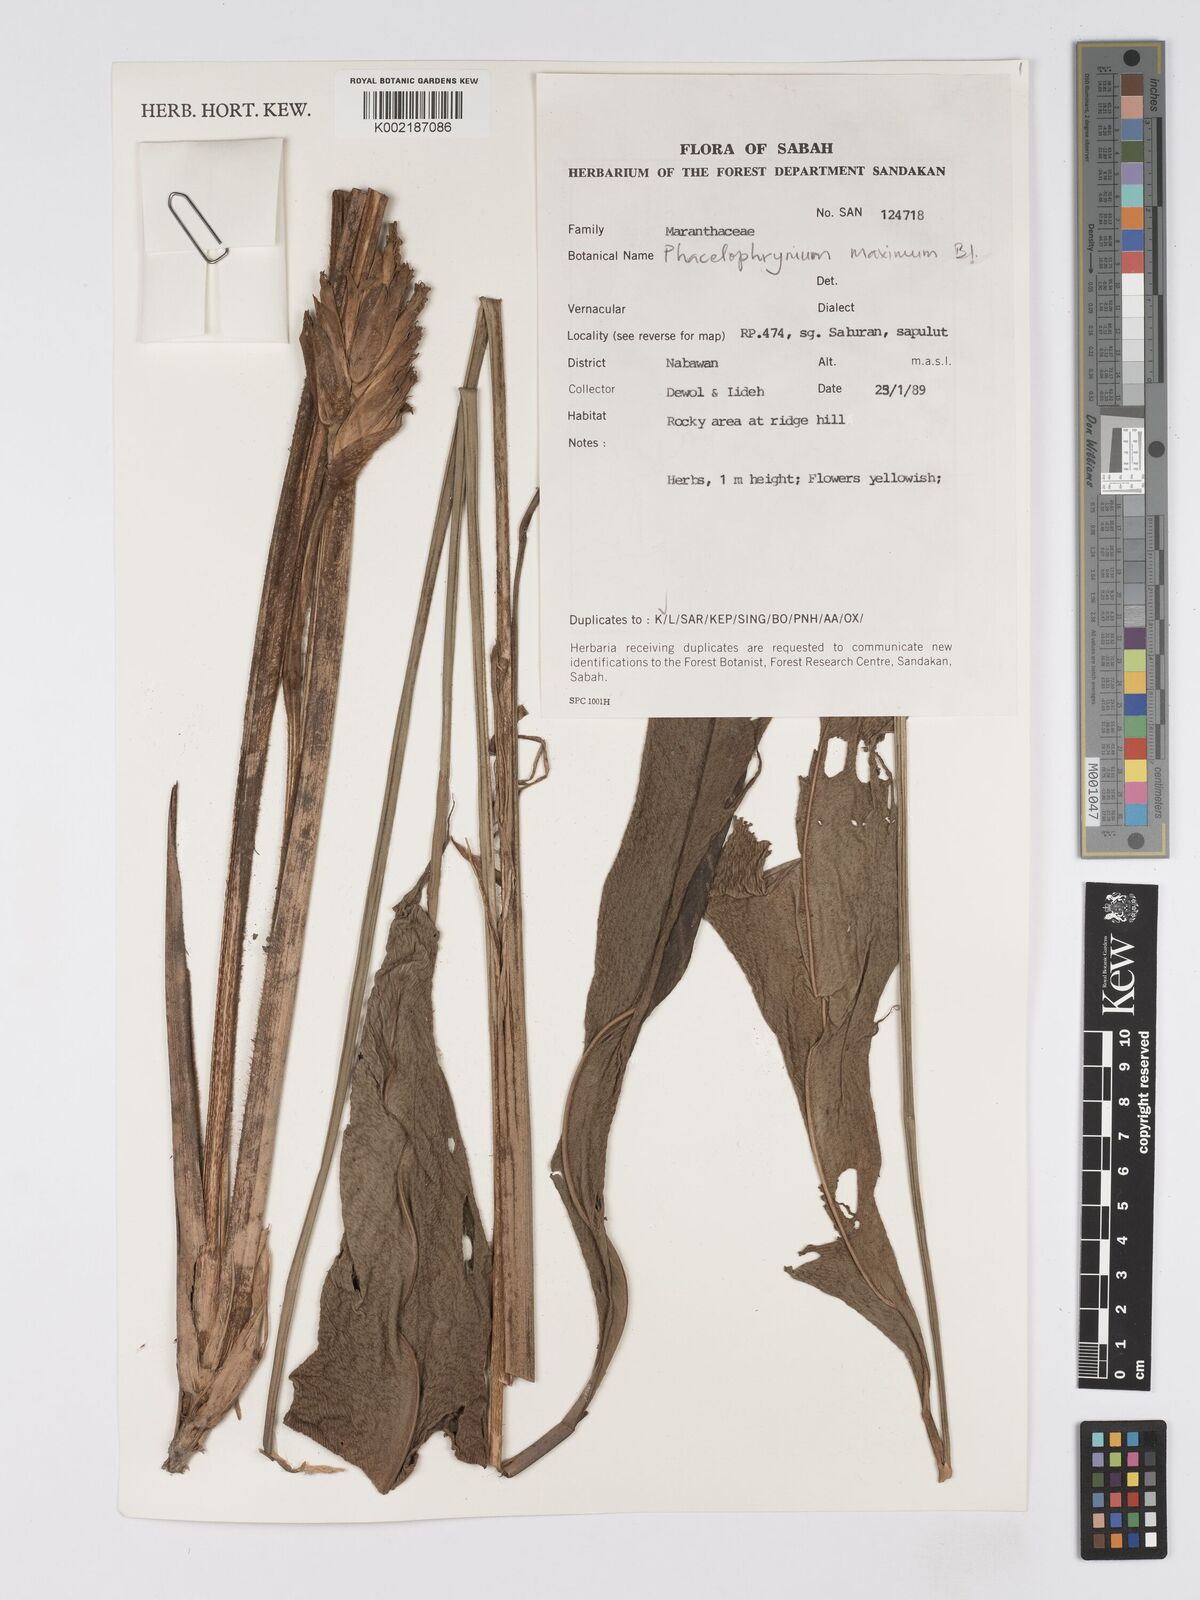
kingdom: Plantae
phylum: Tracheophyta
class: Liliopsida
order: Zingiberales
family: Marantaceae
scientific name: Marantaceae
